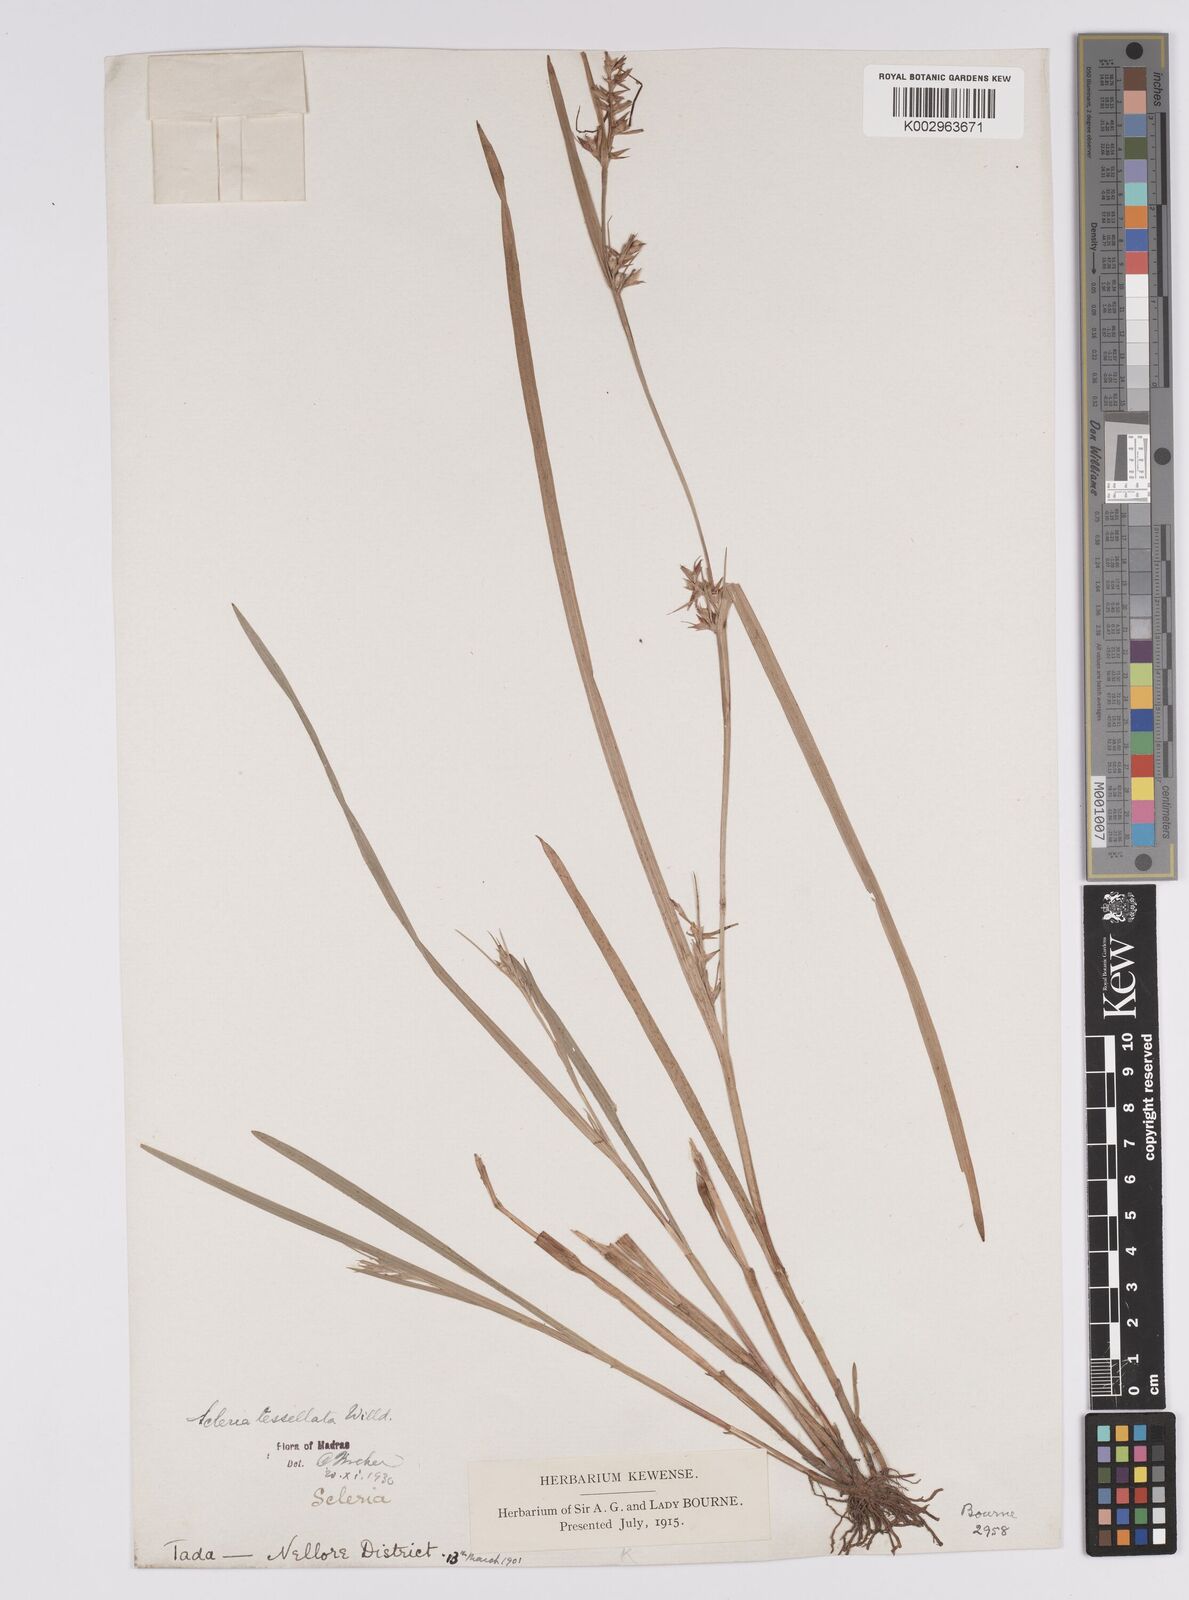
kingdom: Plantae
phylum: Tracheophyta
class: Liliopsida
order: Poales
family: Cyperaceae
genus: Scleria
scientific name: Scleria tessellata
